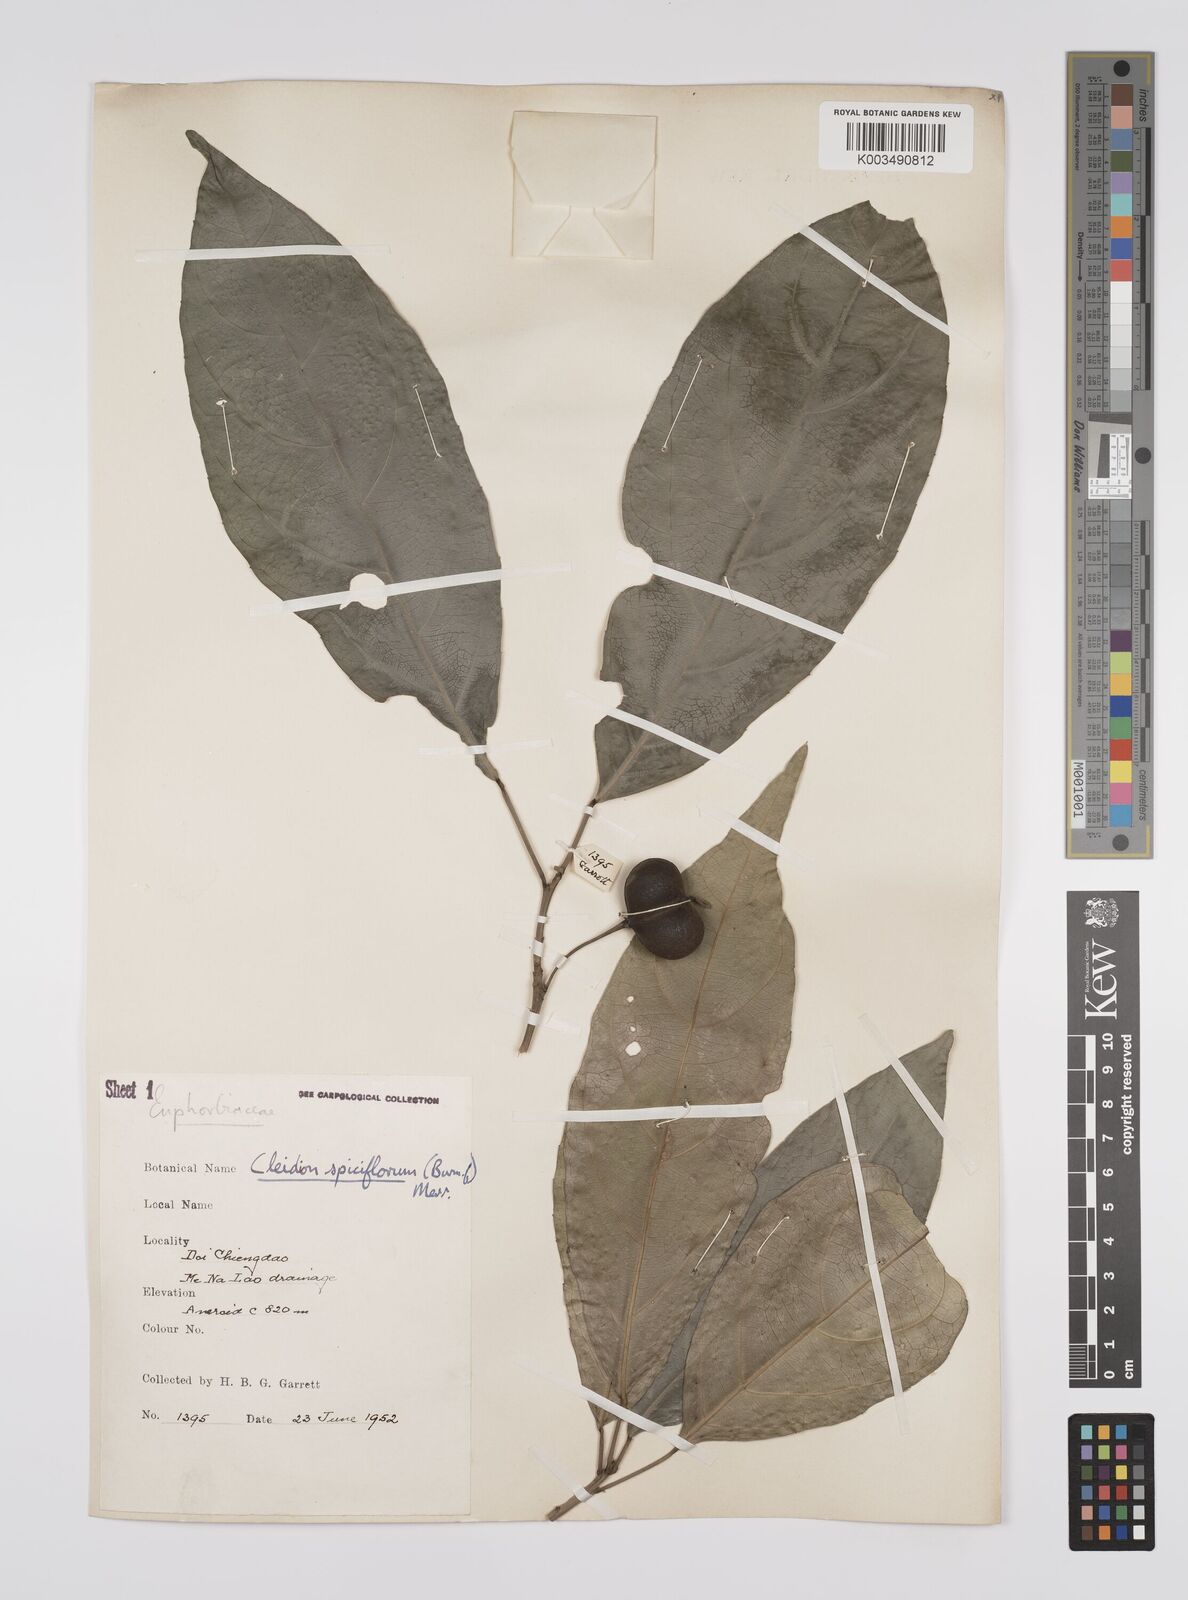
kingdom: Plantae
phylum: Tracheophyta
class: Magnoliopsida
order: Malpighiales
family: Euphorbiaceae
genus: Acalypha
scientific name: Acalypha spiciflora
